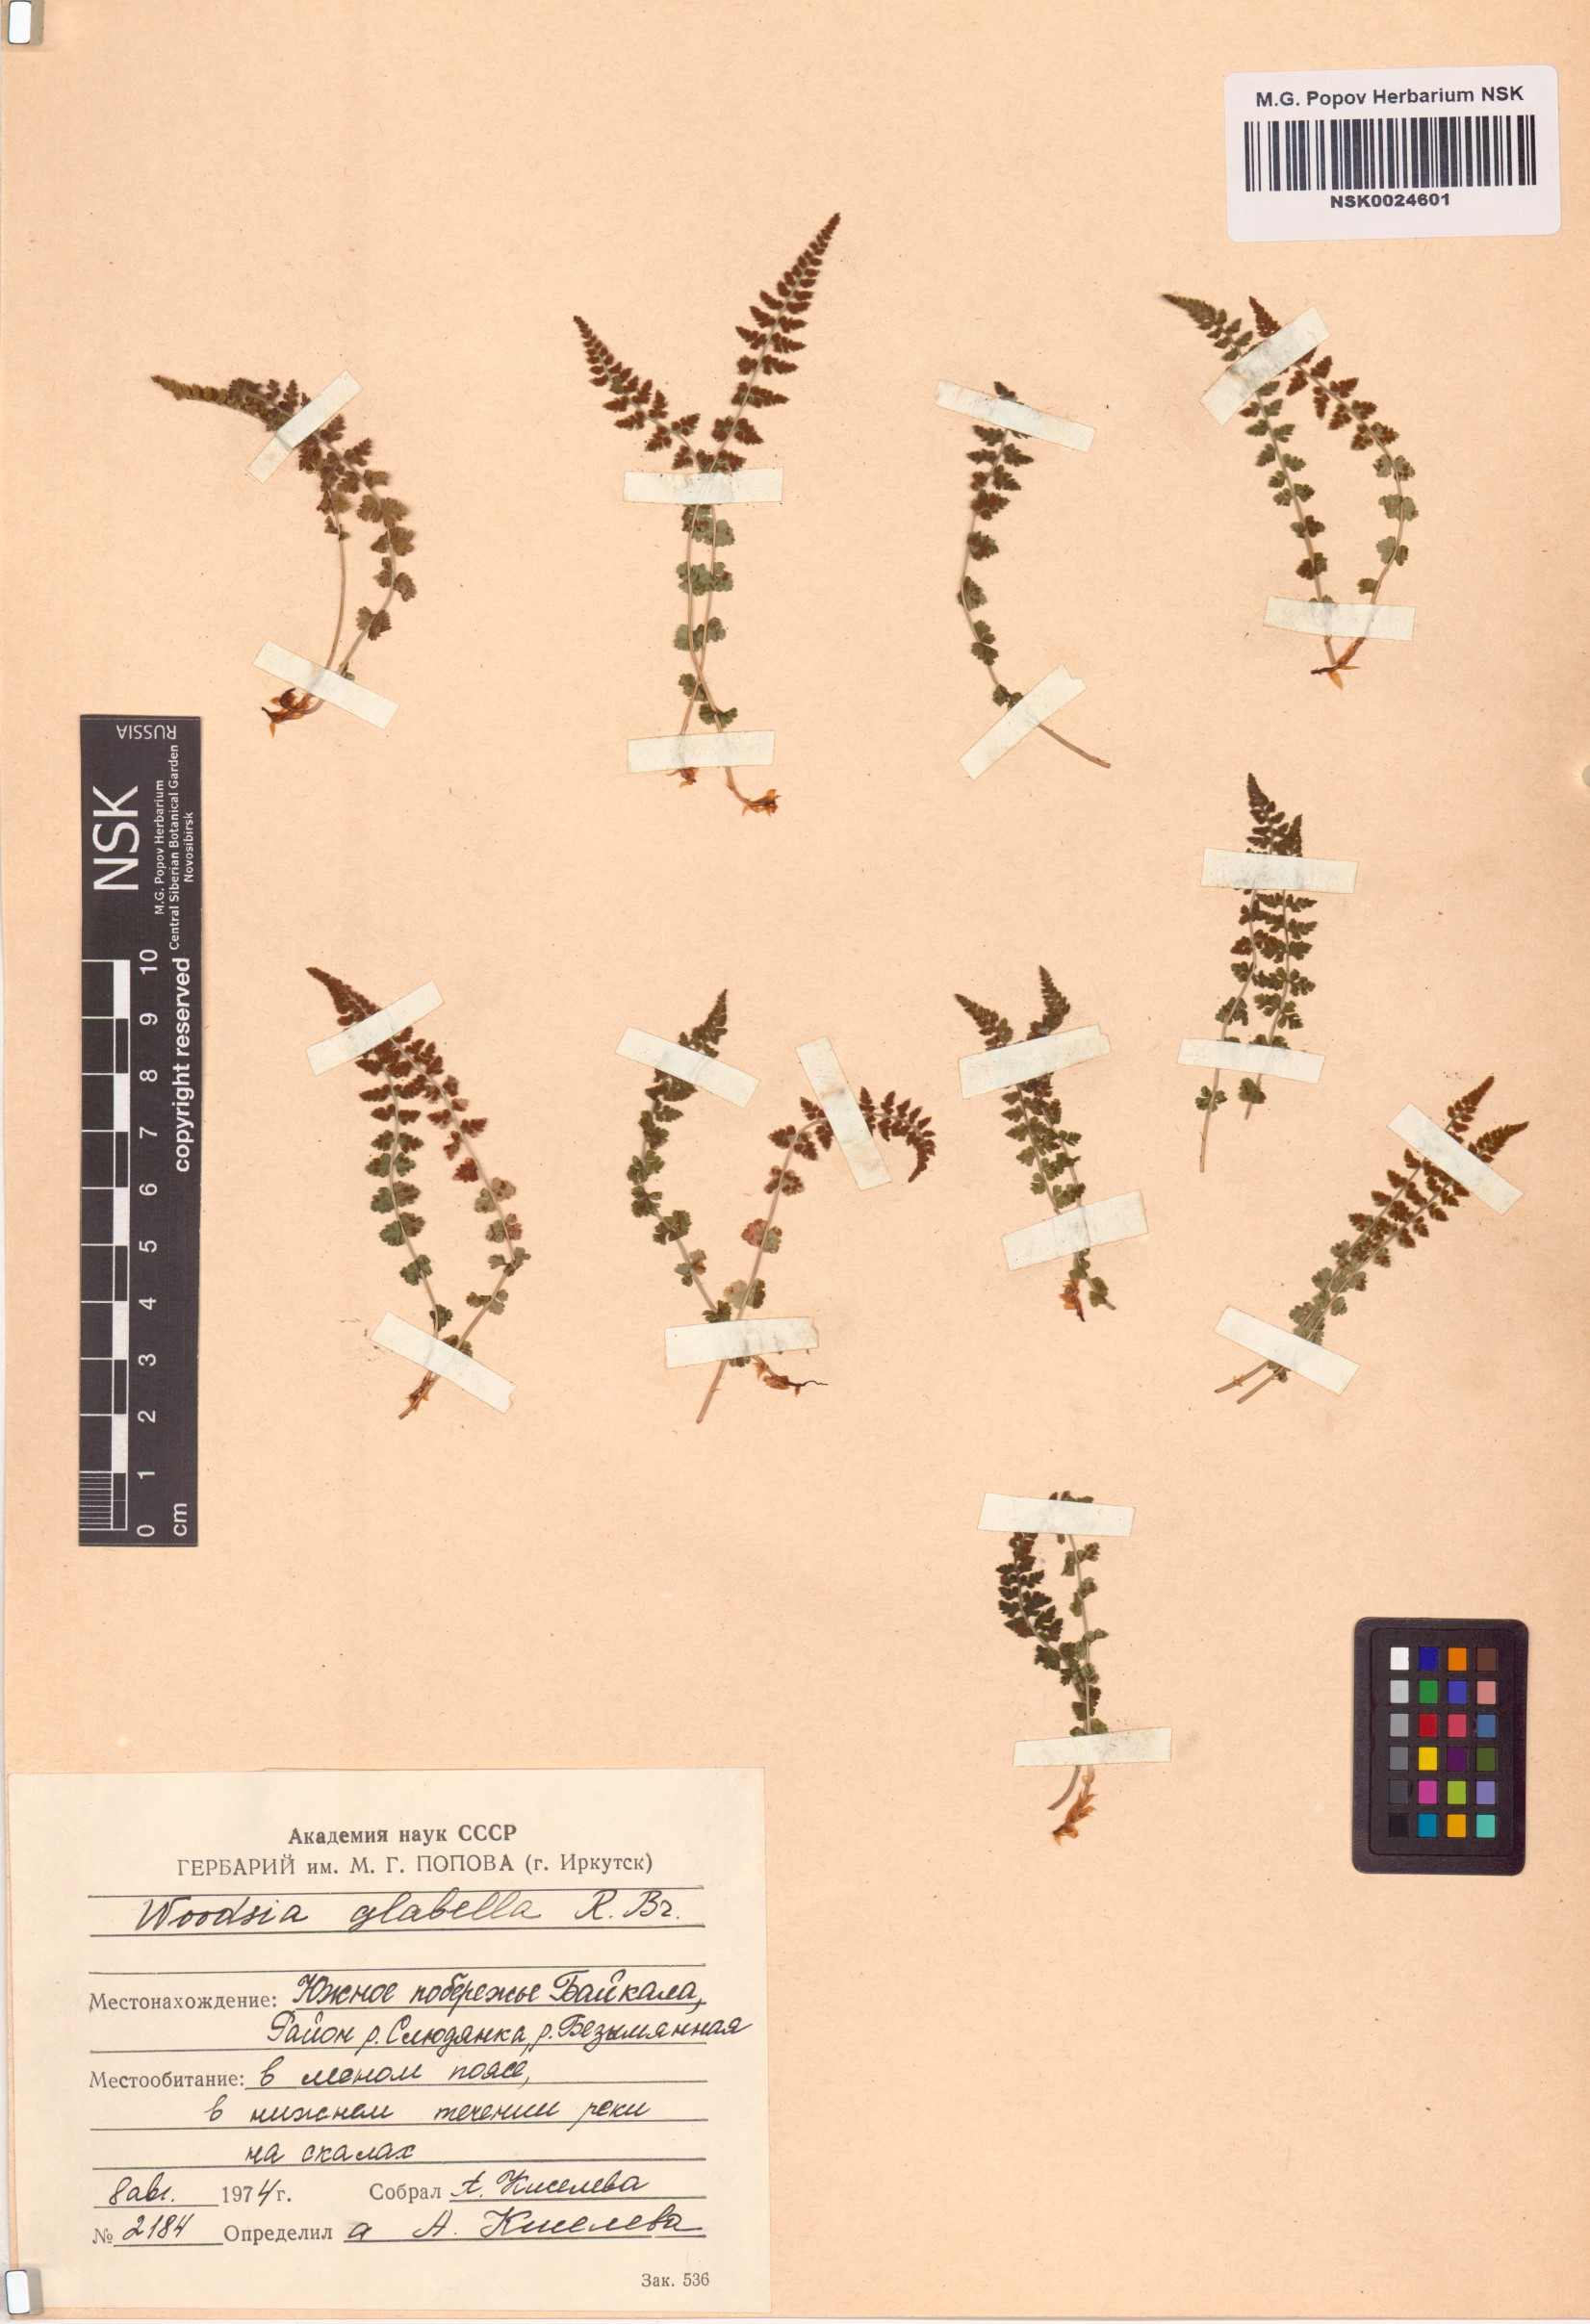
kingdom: Plantae
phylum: Tracheophyta
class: Polypodiopsida
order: Polypodiales
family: Woodsiaceae
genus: Woodsia
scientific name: Woodsia glabella
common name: Smooth woodsia
